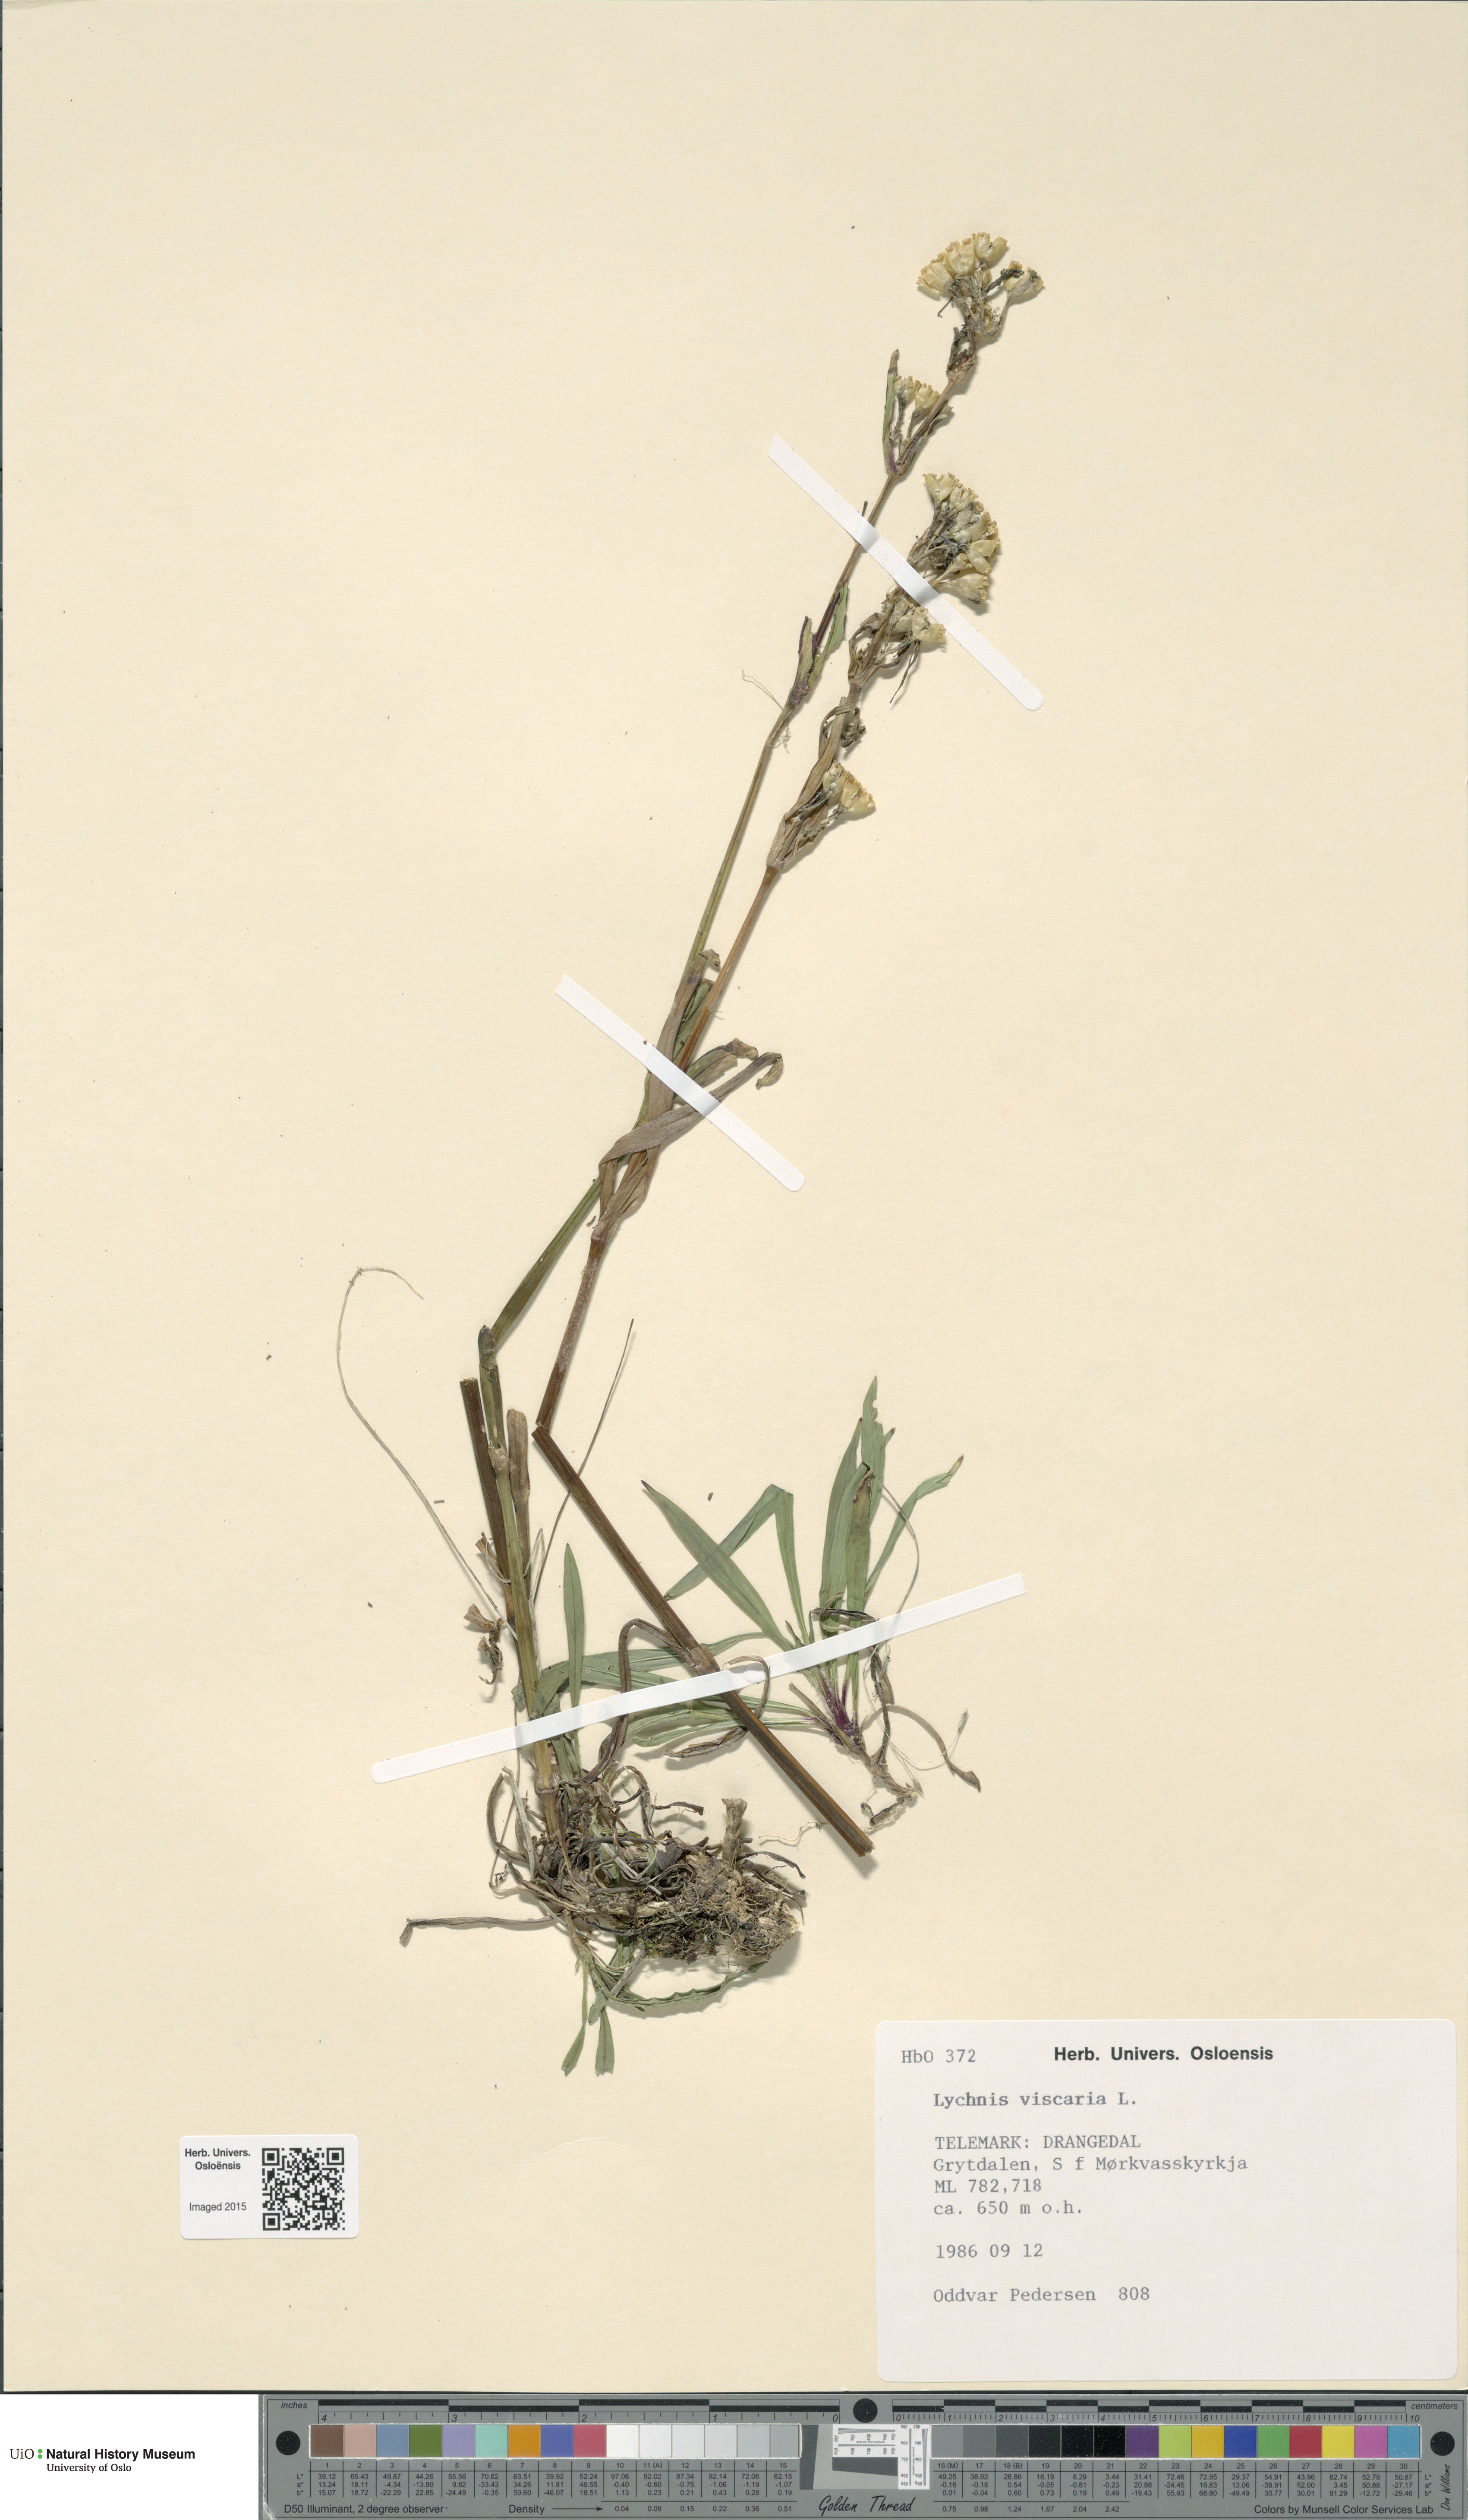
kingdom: Plantae
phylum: Tracheophyta
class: Magnoliopsida
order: Caryophyllales
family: Caryophyllaceae
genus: Viscaria
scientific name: Viscaria vulgaris
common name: Clammy campion
